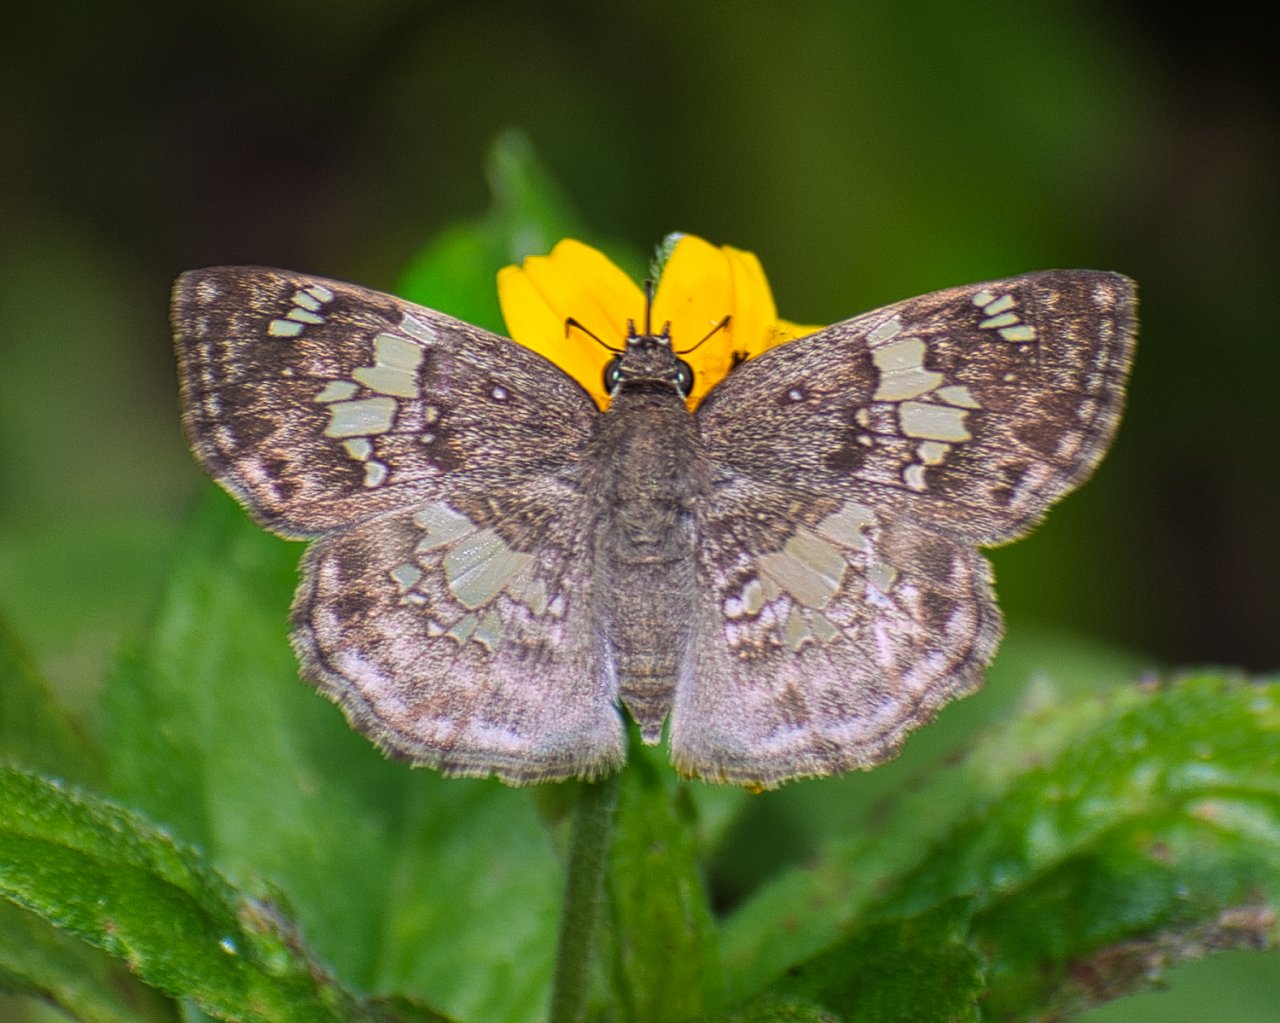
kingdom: Animalia
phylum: Arthropoda
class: Insecta
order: Lepidoptera
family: Hesperiidae
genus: Xenophanes
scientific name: Xenophanes tryxus
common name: Glassy-winged Skipper
